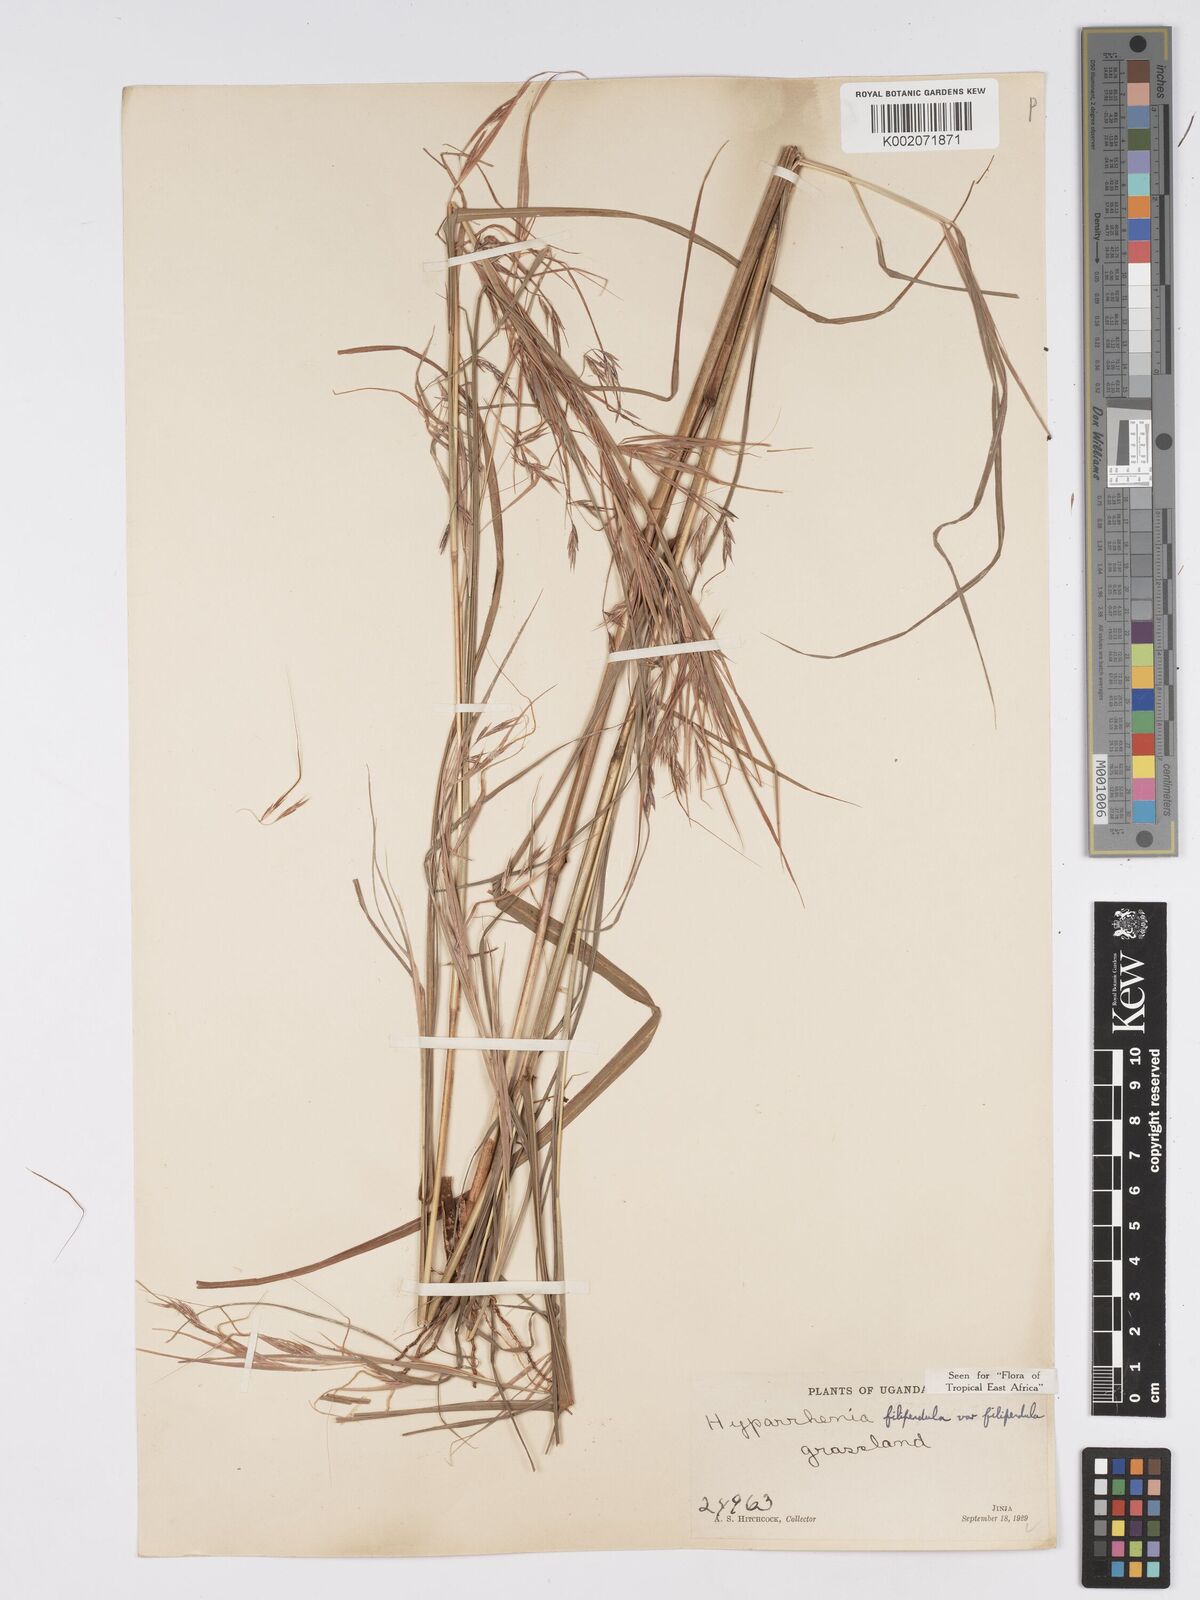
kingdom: Plantae
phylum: Tracheophyta
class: Liliopsida
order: Poales
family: Poaceae
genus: Hyparrhenia
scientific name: Hyparrhenia filipendula
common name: Tambookie grass
